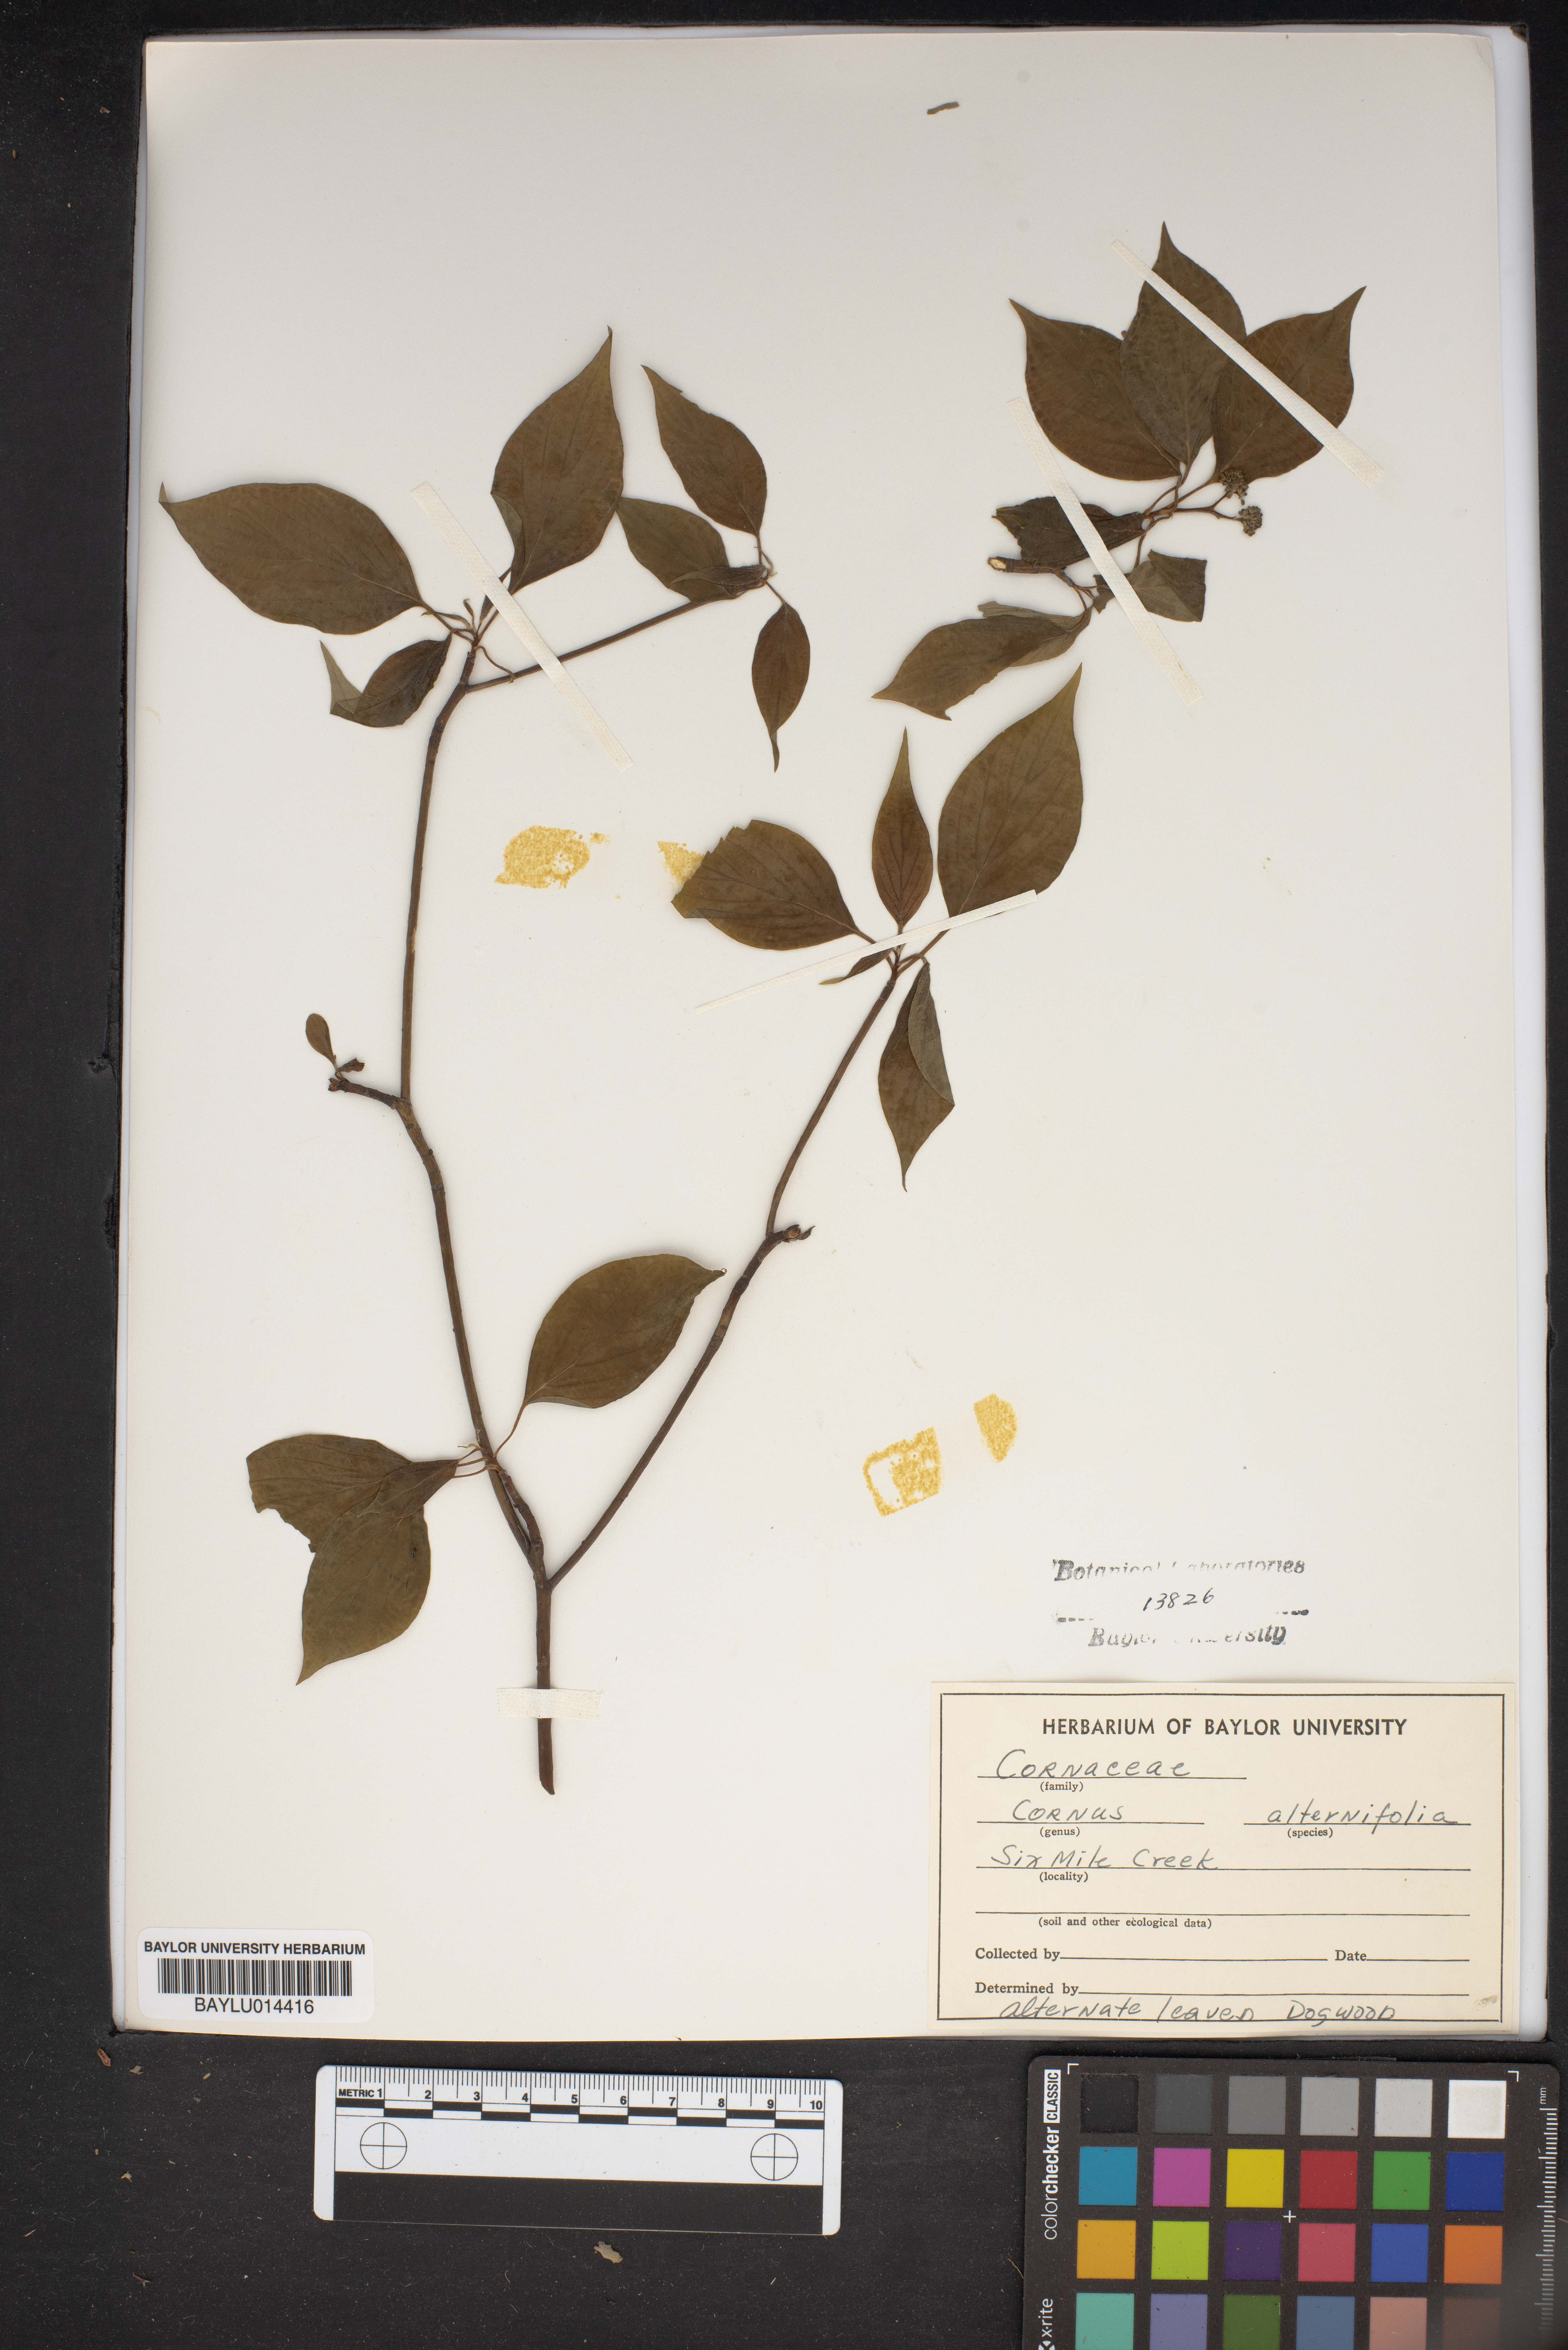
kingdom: Plantae
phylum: Tracheophyta
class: Magnoliopsida
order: Cornales
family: Cornaceae
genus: Cornus
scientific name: Cornus alternifolia
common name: Pagoda dogwood
